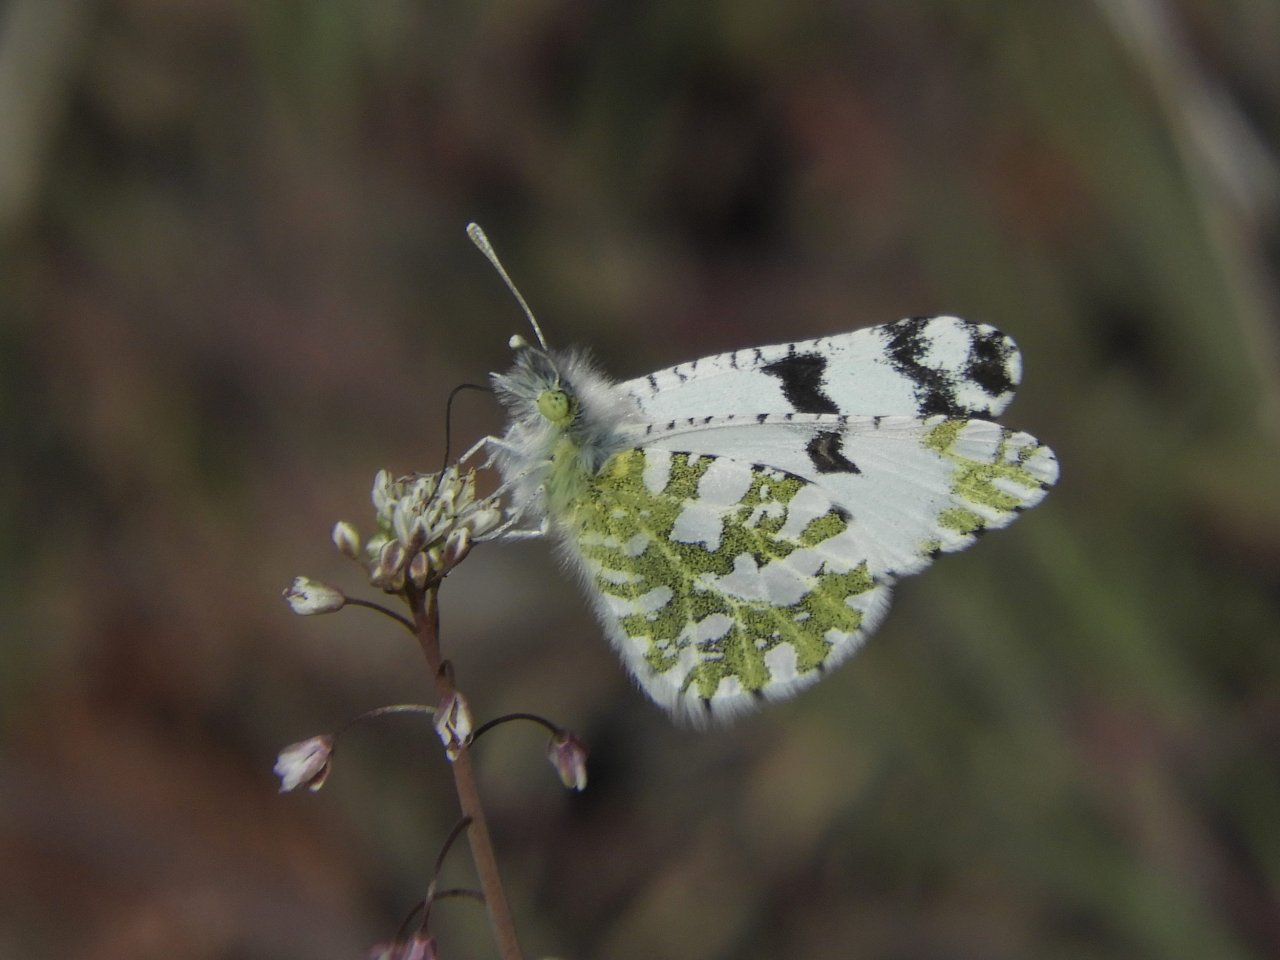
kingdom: Animalia
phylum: Arthropoda
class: Insecta
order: Lepidoptera
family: Pieridae
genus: Euchloe
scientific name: Euchloe lotta
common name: Desert Marble
